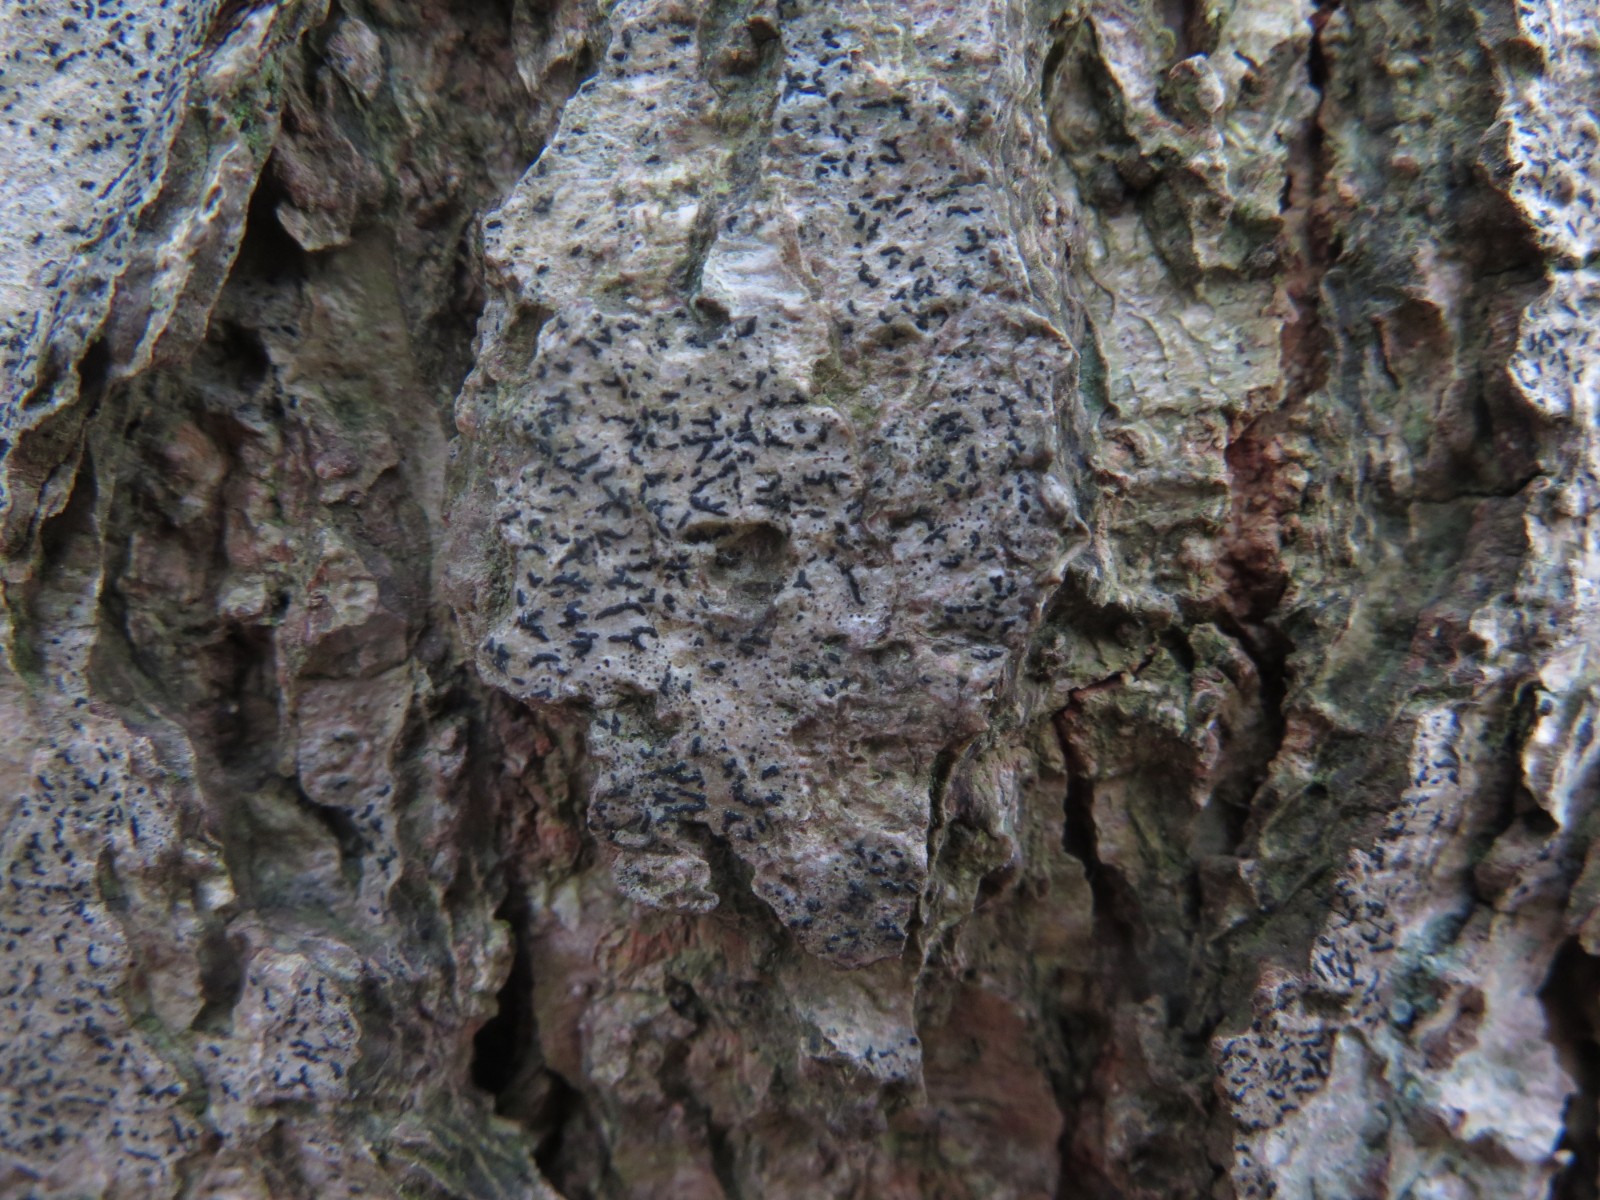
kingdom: Fungi
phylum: Ascomycota
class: Lecanoromycetes
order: Ostropales
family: Graphidaceae
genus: Graphis
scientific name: Graphis scripta
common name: almindelig skriftlav
